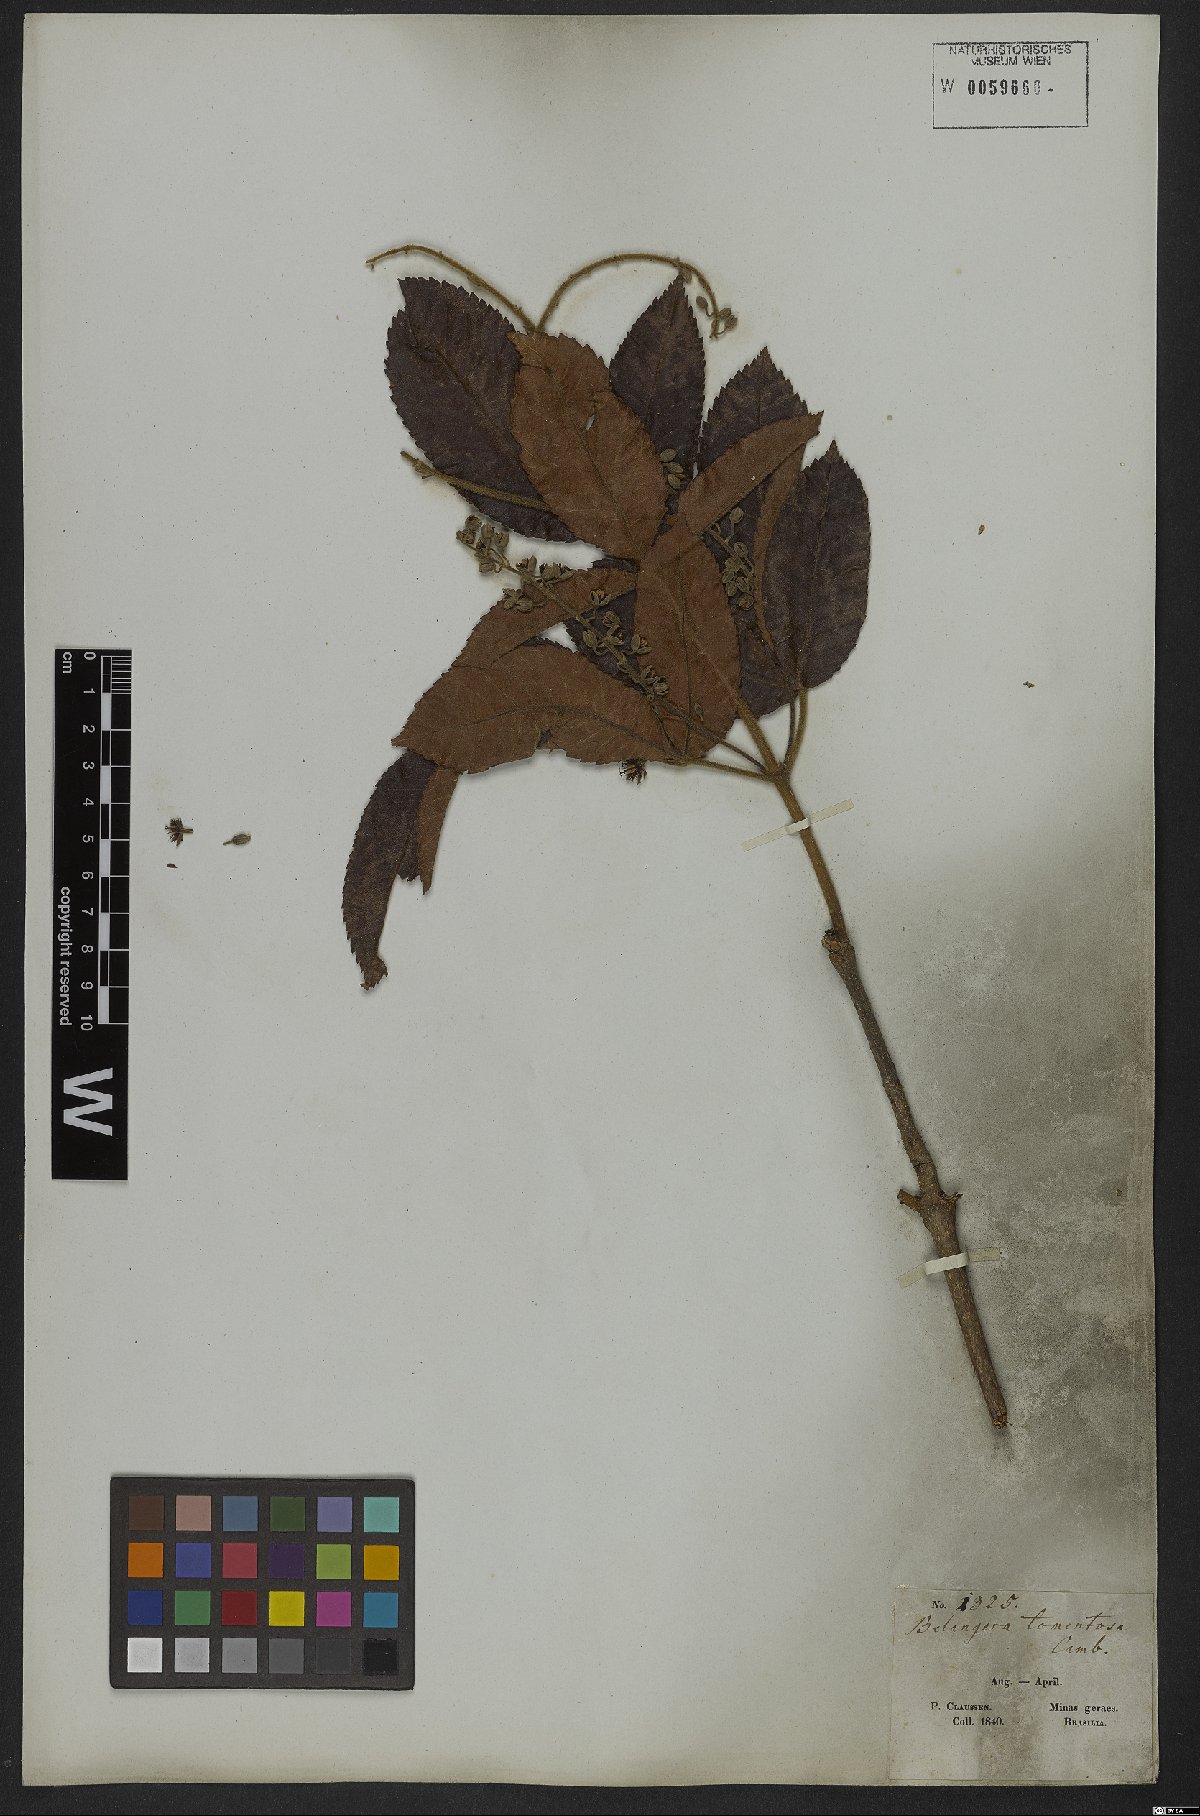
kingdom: Plantae
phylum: Tracheophyta
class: Magnoliopsida
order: Oxalidales
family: Cunoniaceae
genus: Lamanonia
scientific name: Lamanonia ternata
